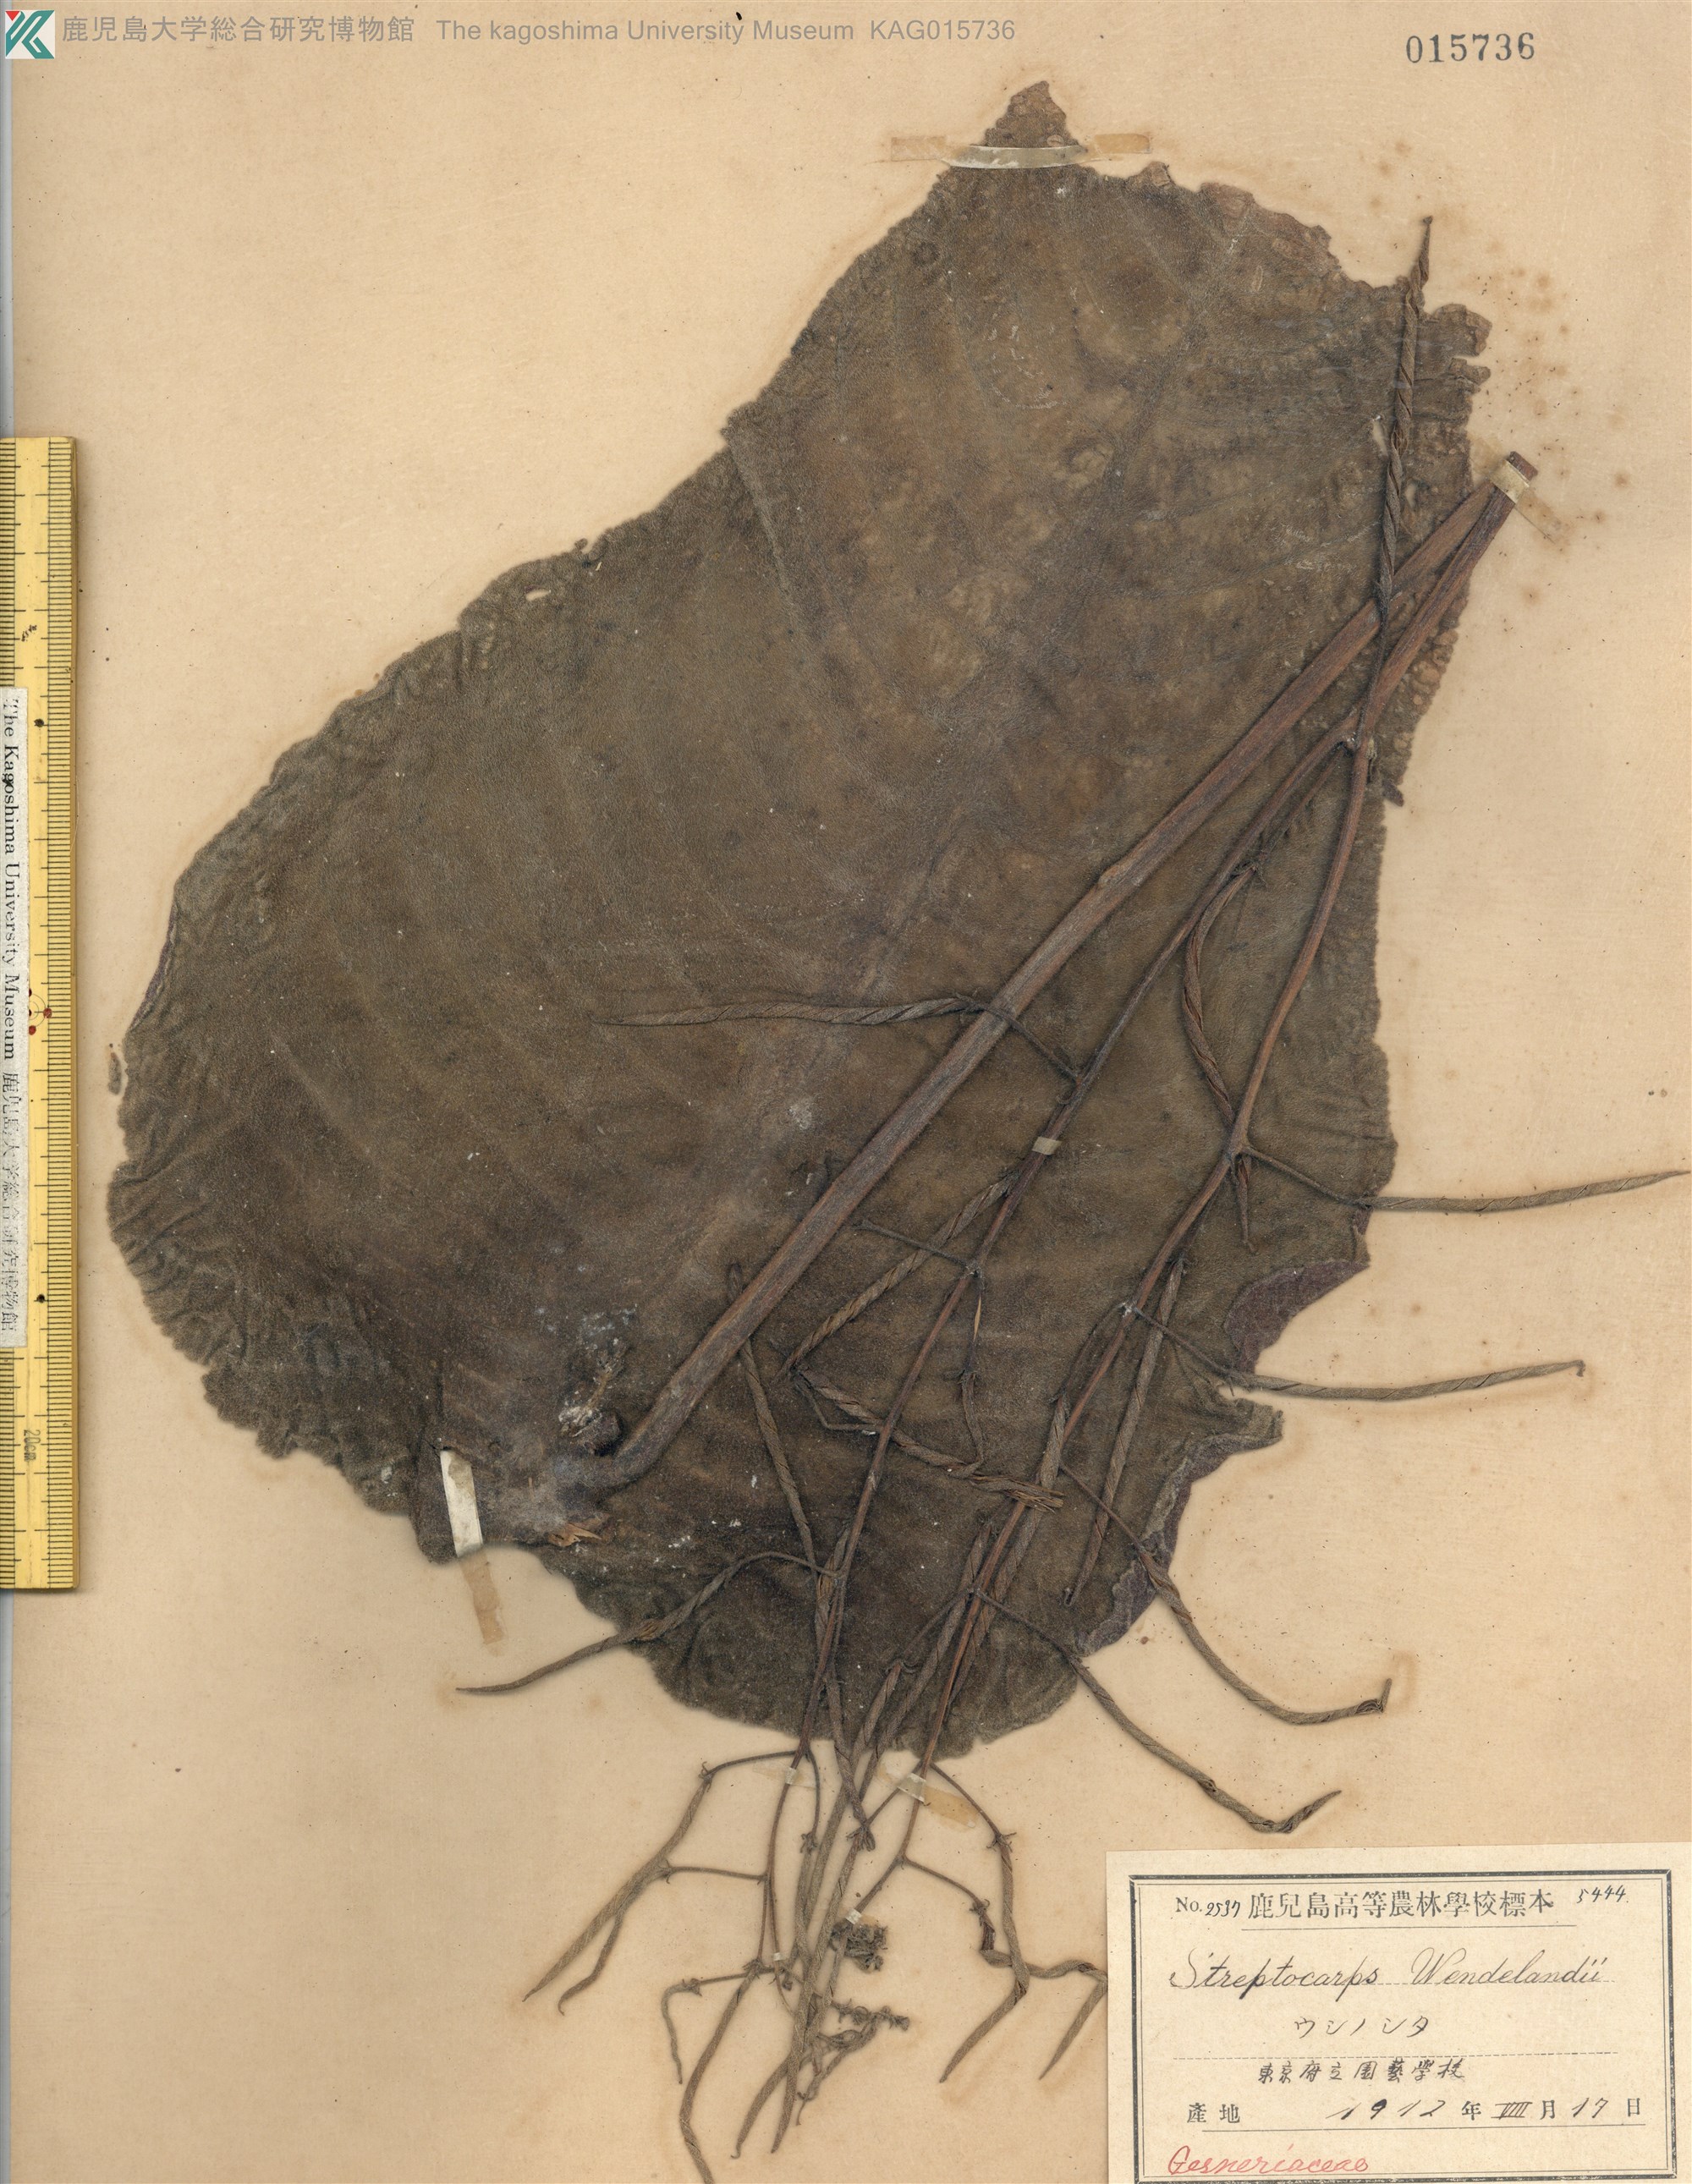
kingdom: Plantae
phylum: Tracheophyta
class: Magnoliopsida
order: Lamiales
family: Gesneriaceae
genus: Streptocarpus
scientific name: Streptocarpus wendlandii
